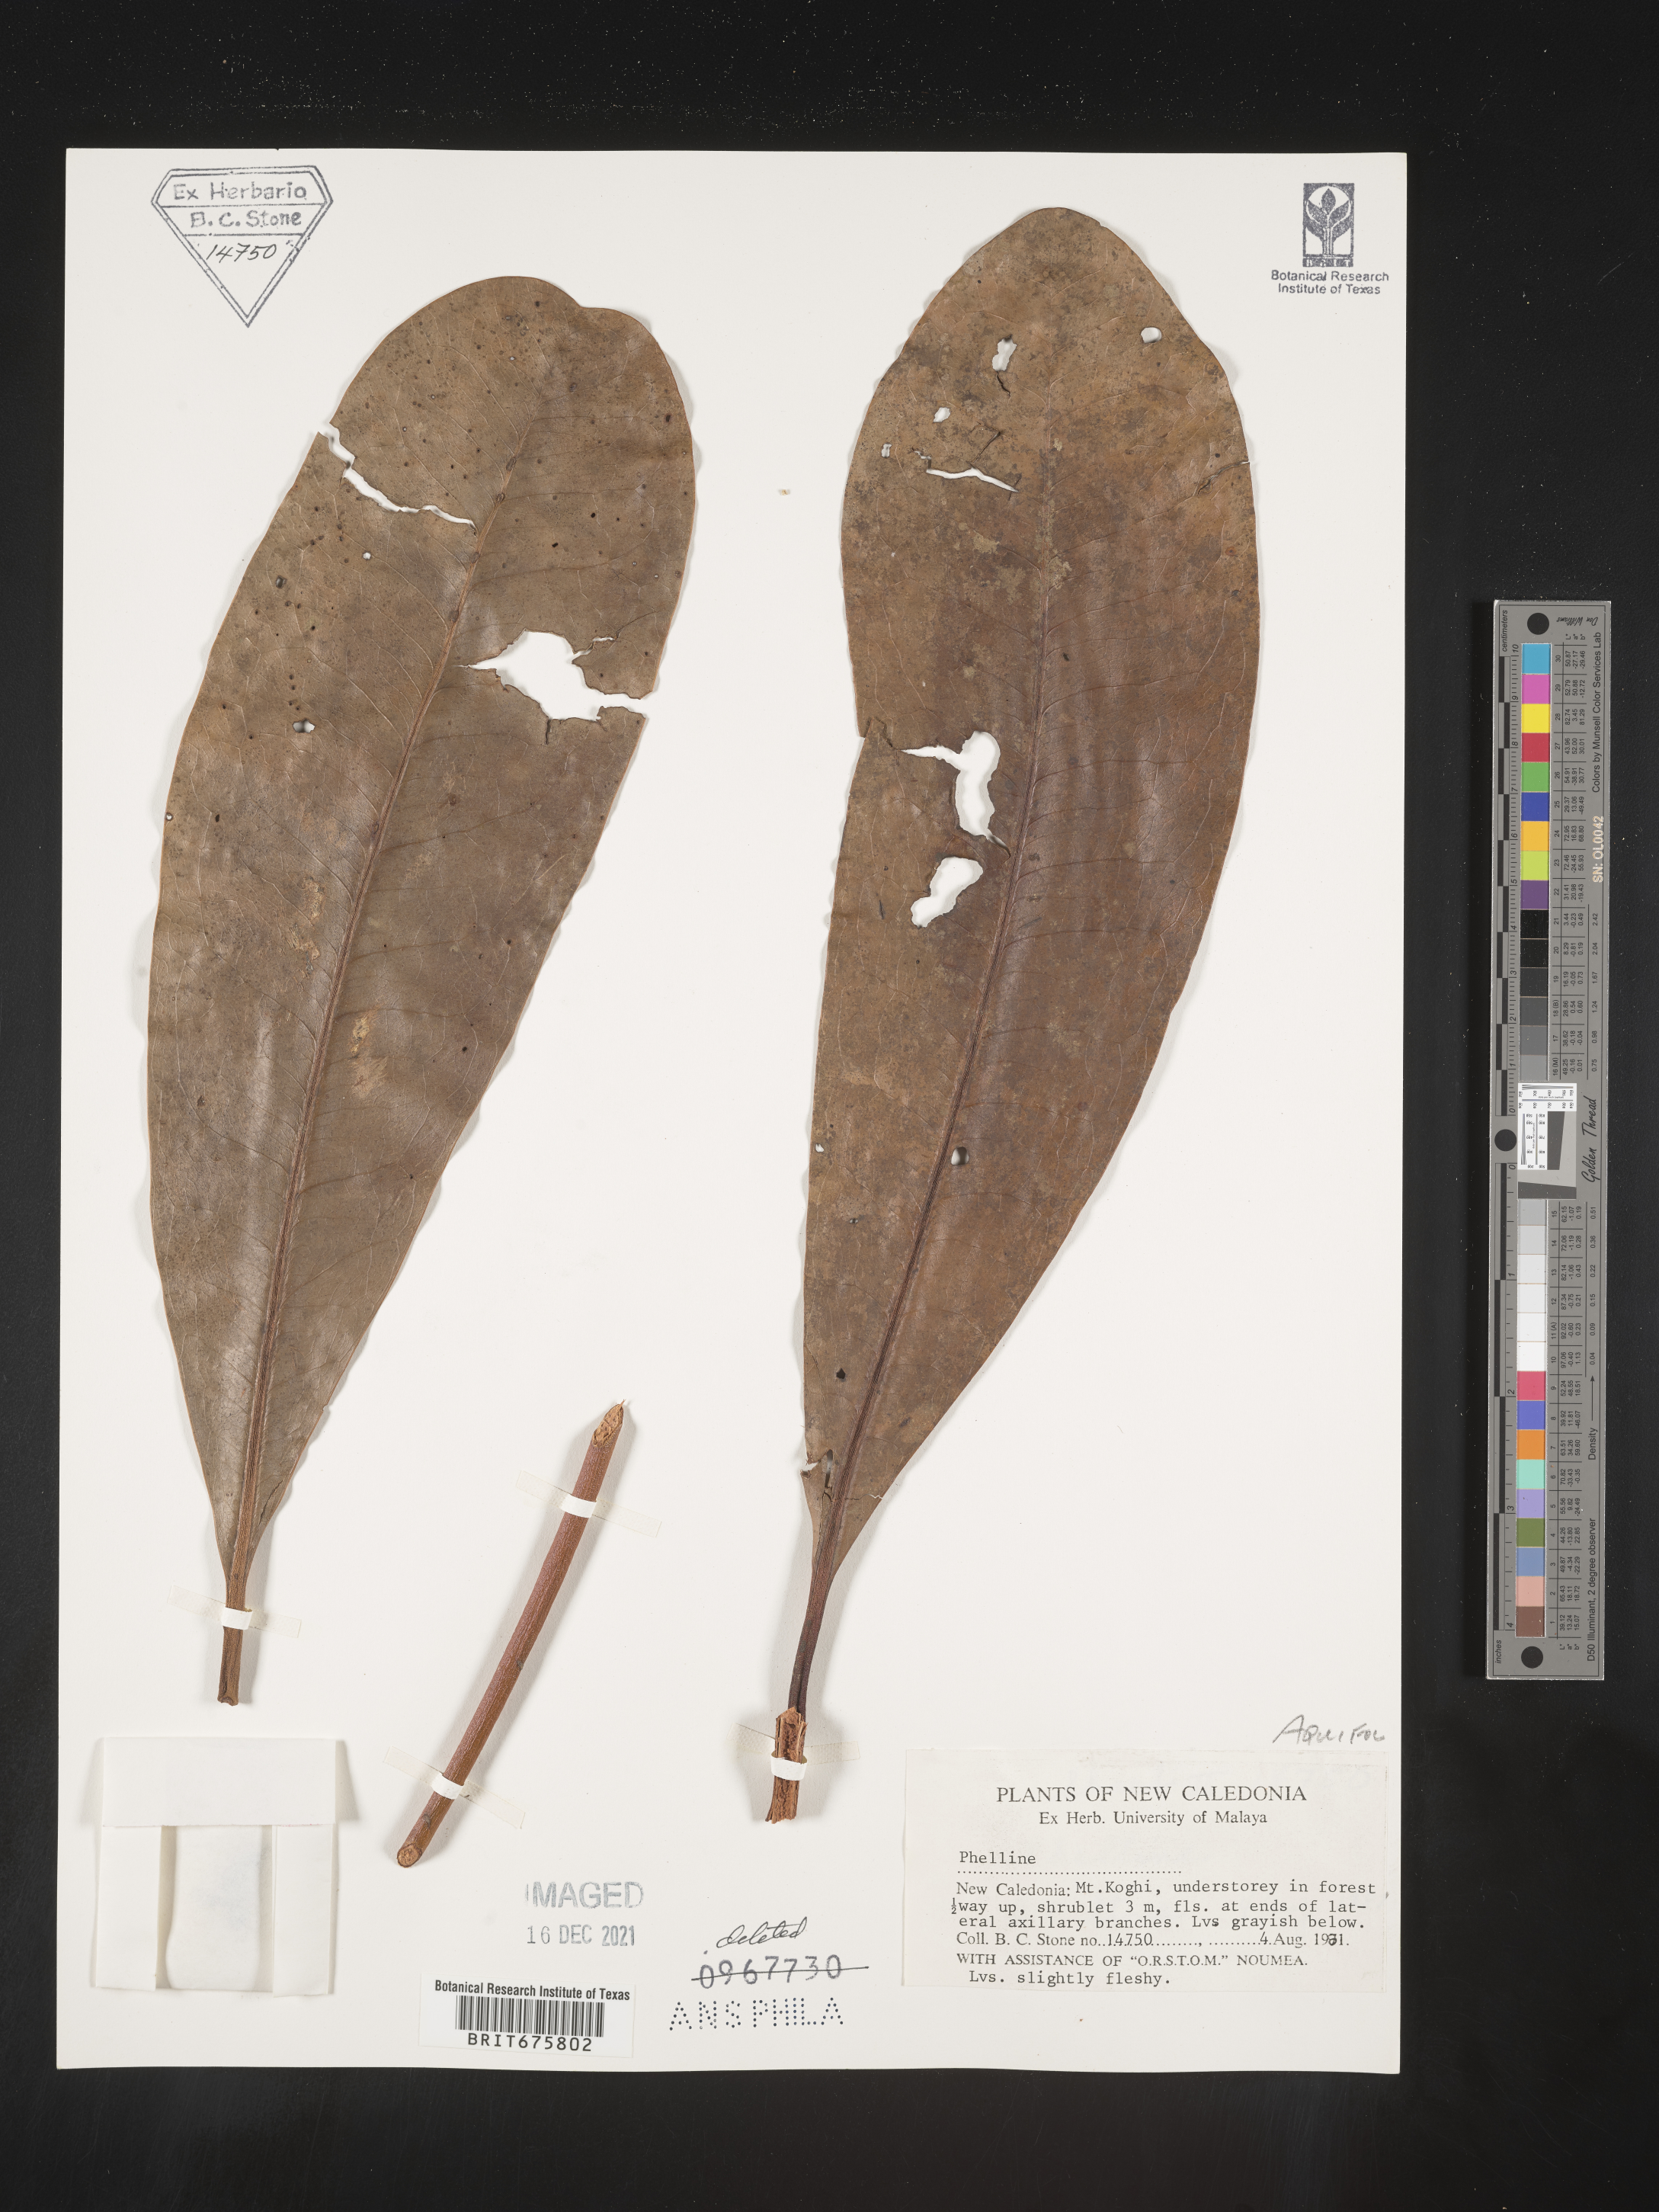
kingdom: Plantae
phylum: Tracheophyta
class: Magnoliopsida
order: Asterales
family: Phellinaceae
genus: Phelline
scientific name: Phelline
